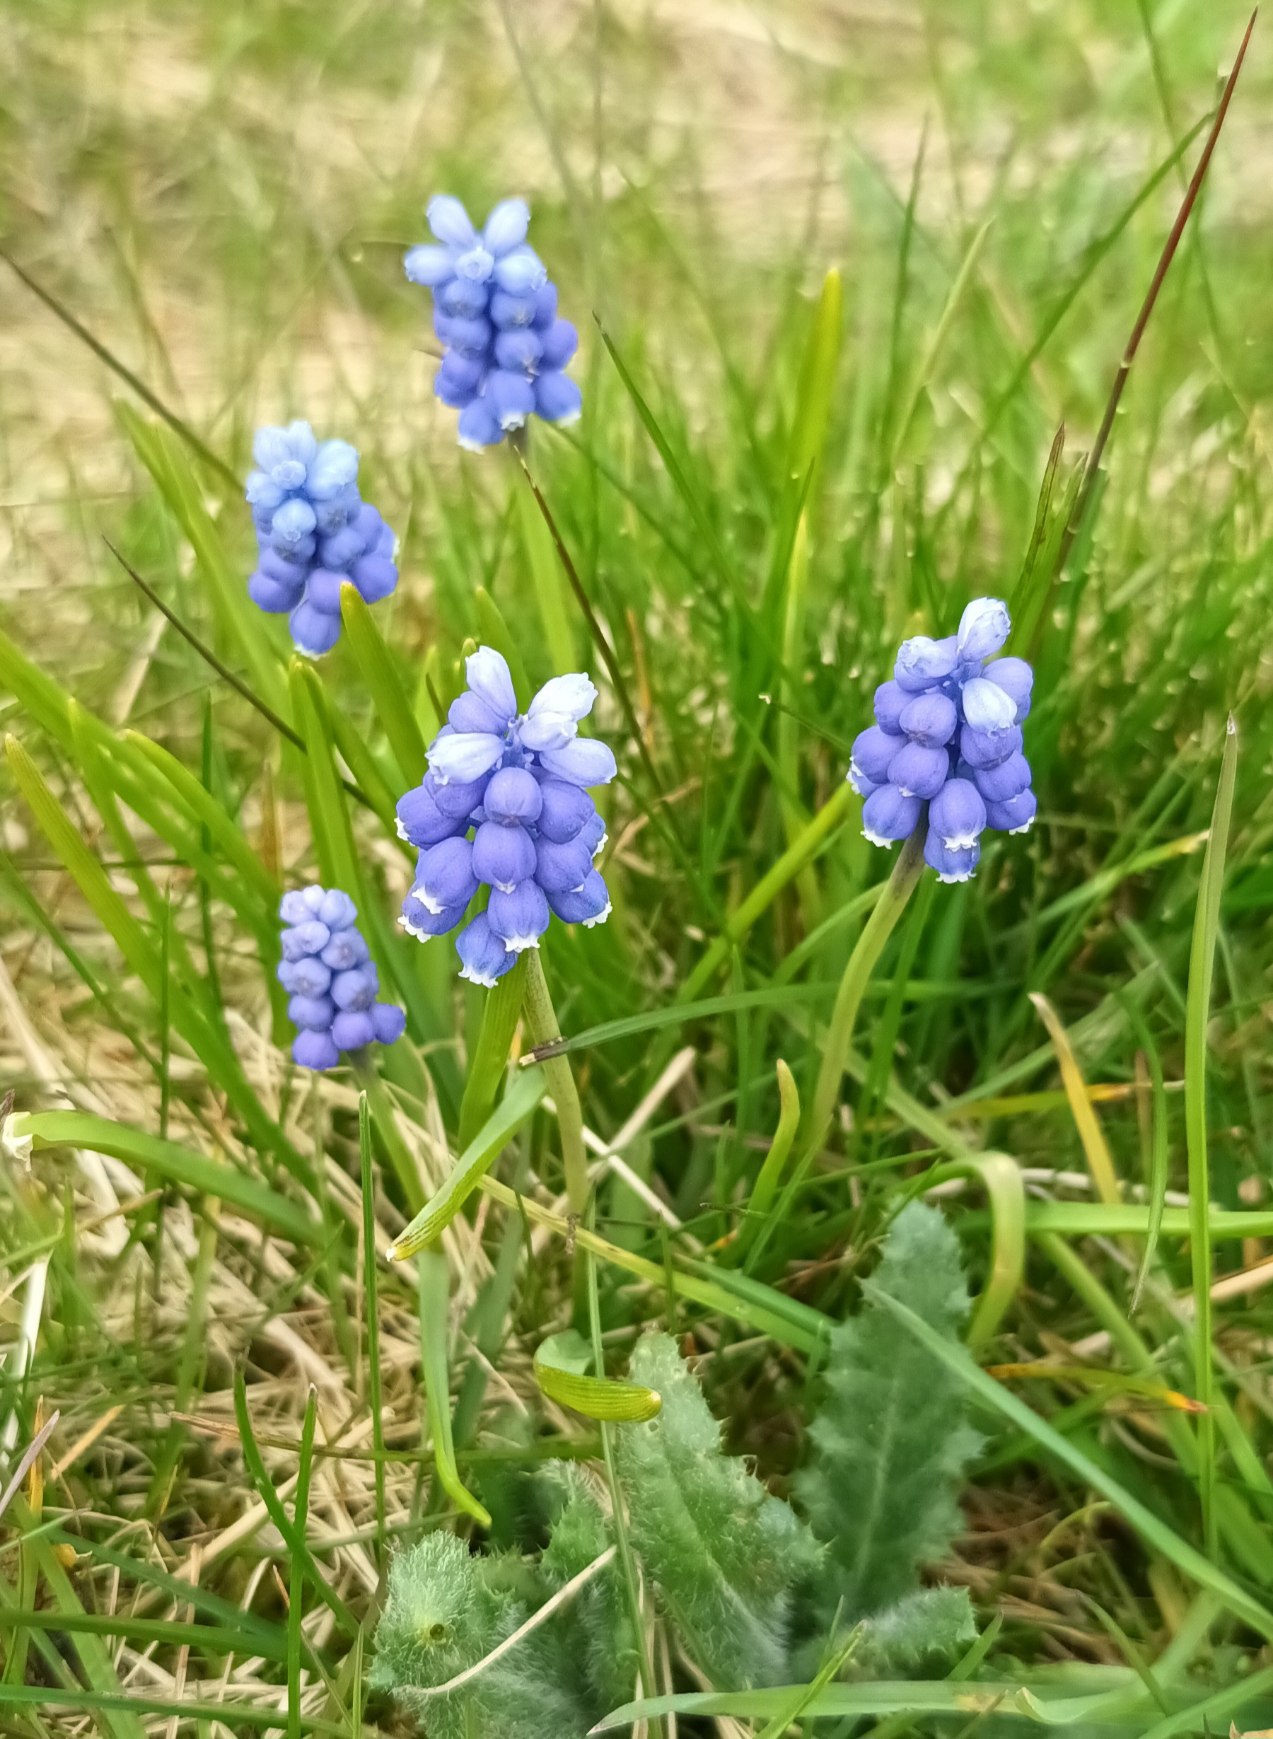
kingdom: Plantae
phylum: Tracheophyta
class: Liliopsida
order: Asparagales
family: Asparagaceae
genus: Muscari
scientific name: Muscari botryoides
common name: Perlehyacint
